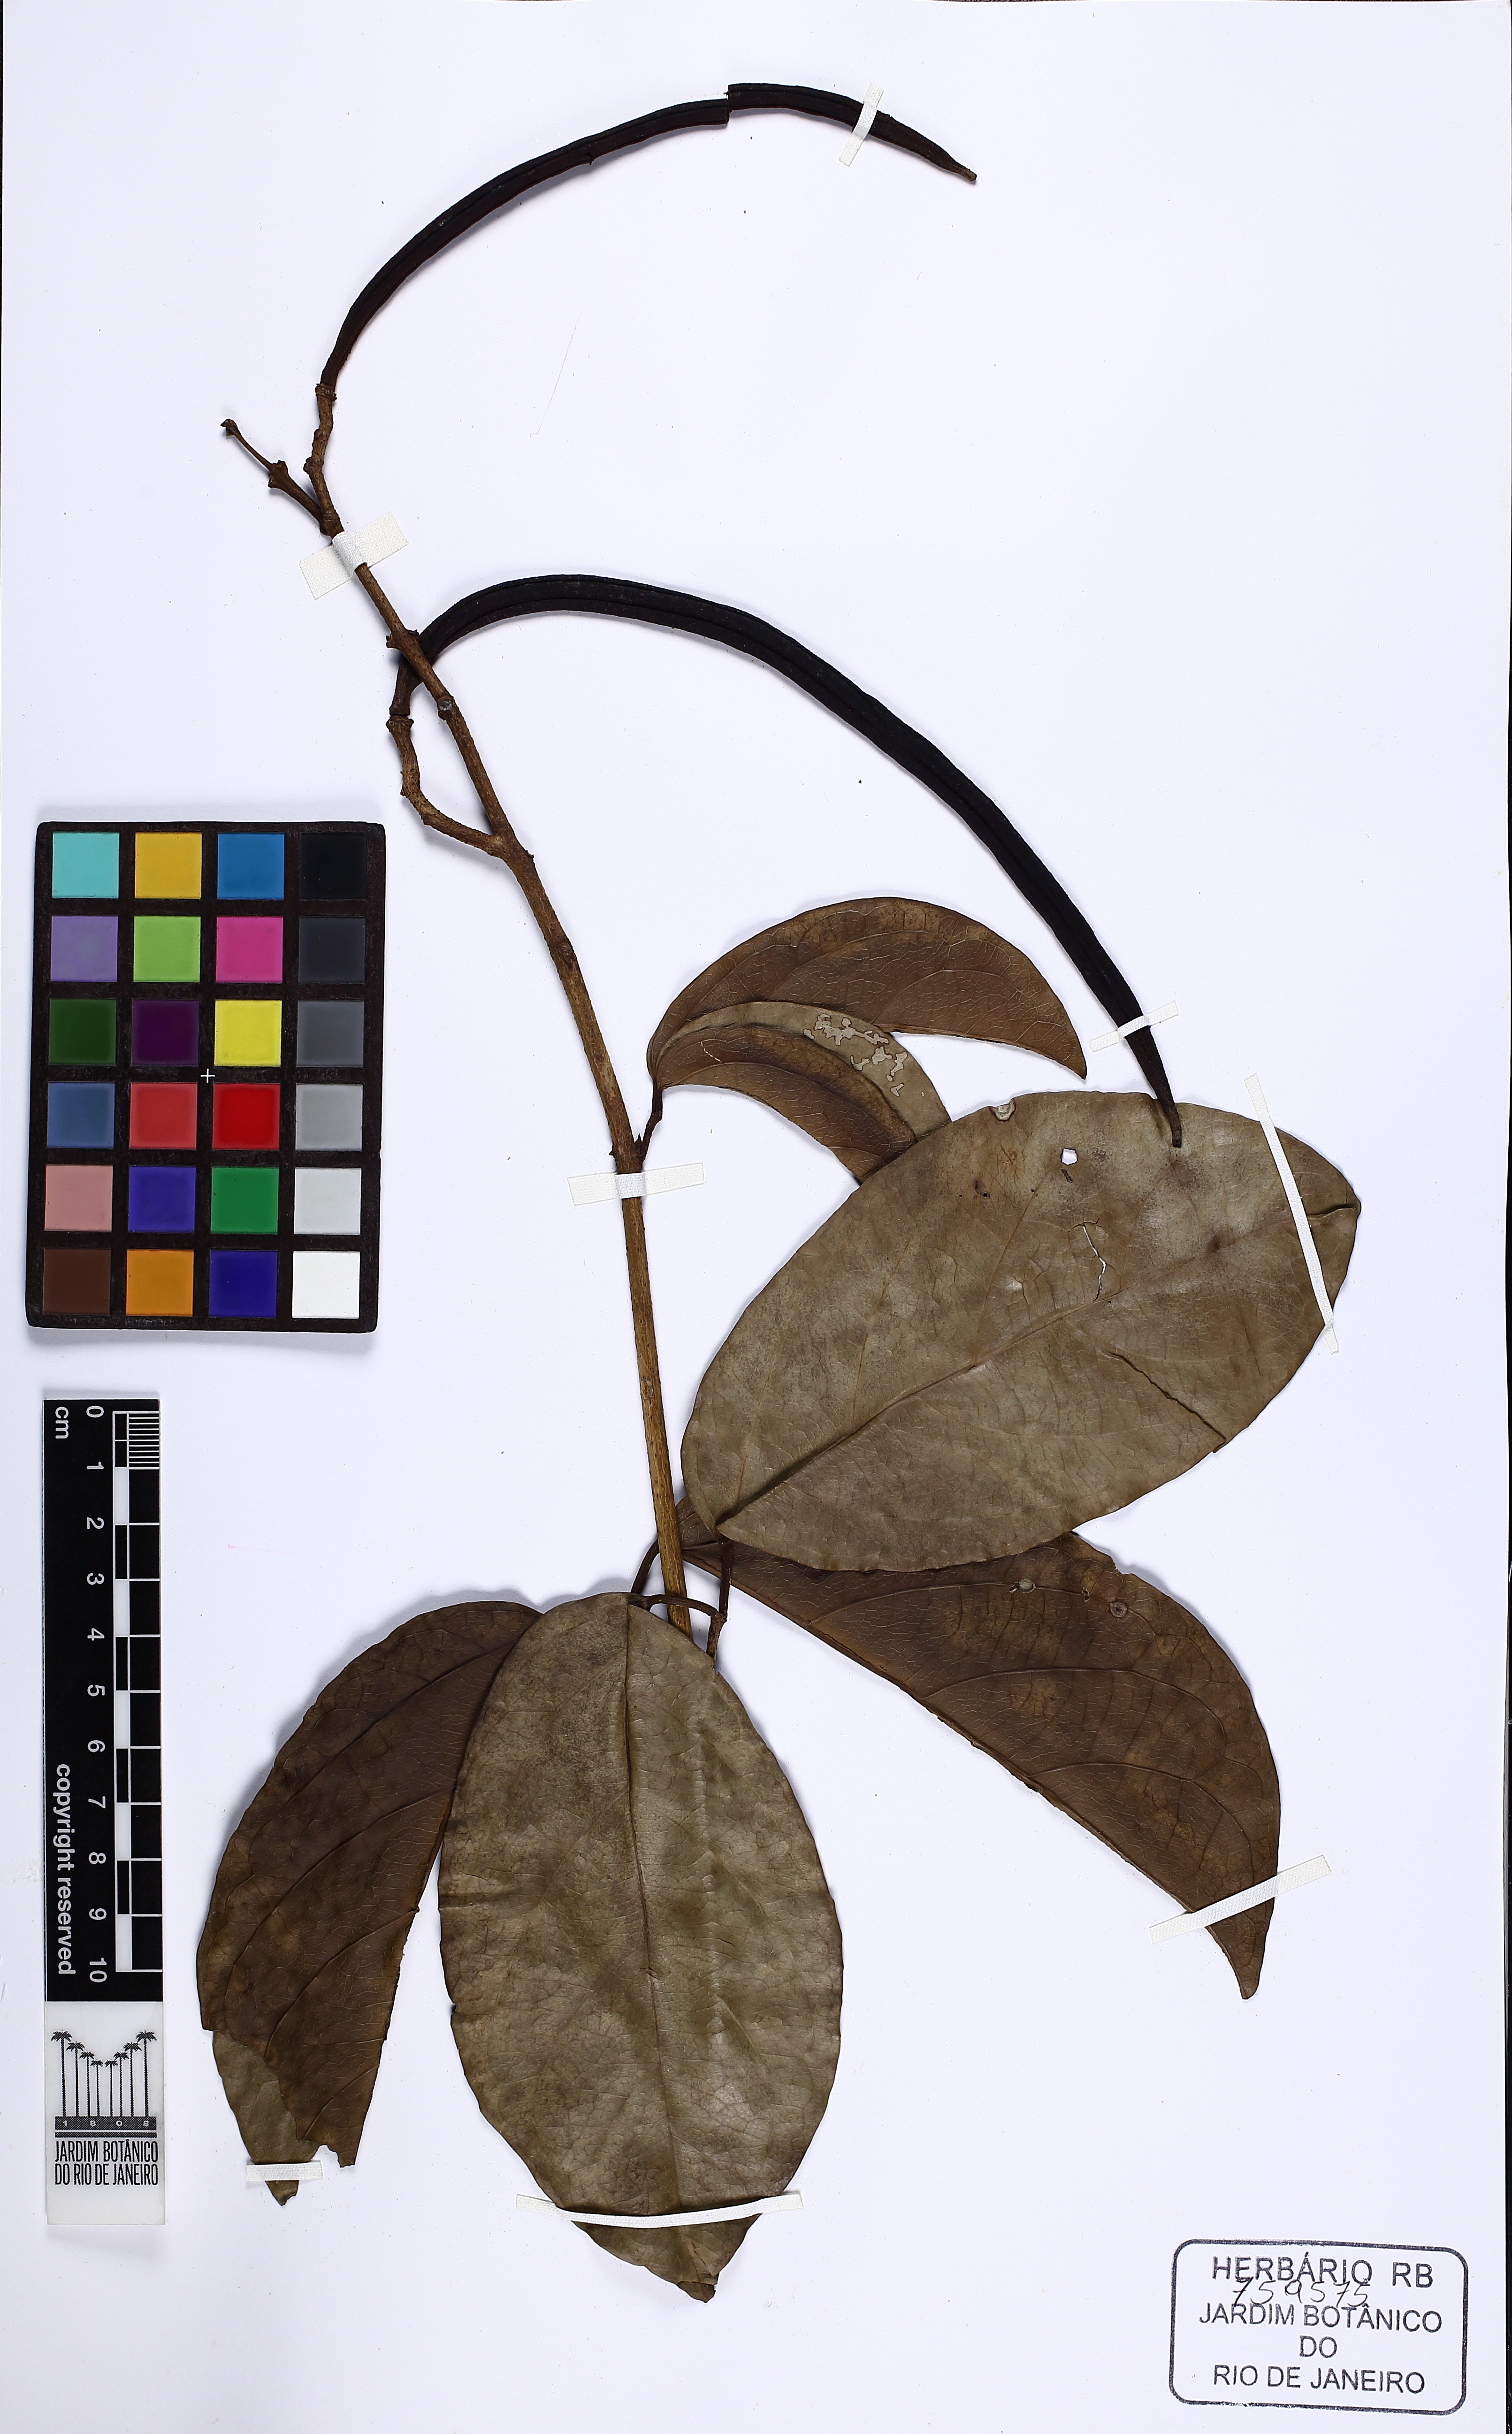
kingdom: Plantae
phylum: Tracheophyta
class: Magnoliopsida
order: Lamiales
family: Bignoniaceae
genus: Tanaecium
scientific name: Tanaecium pyramidatum
